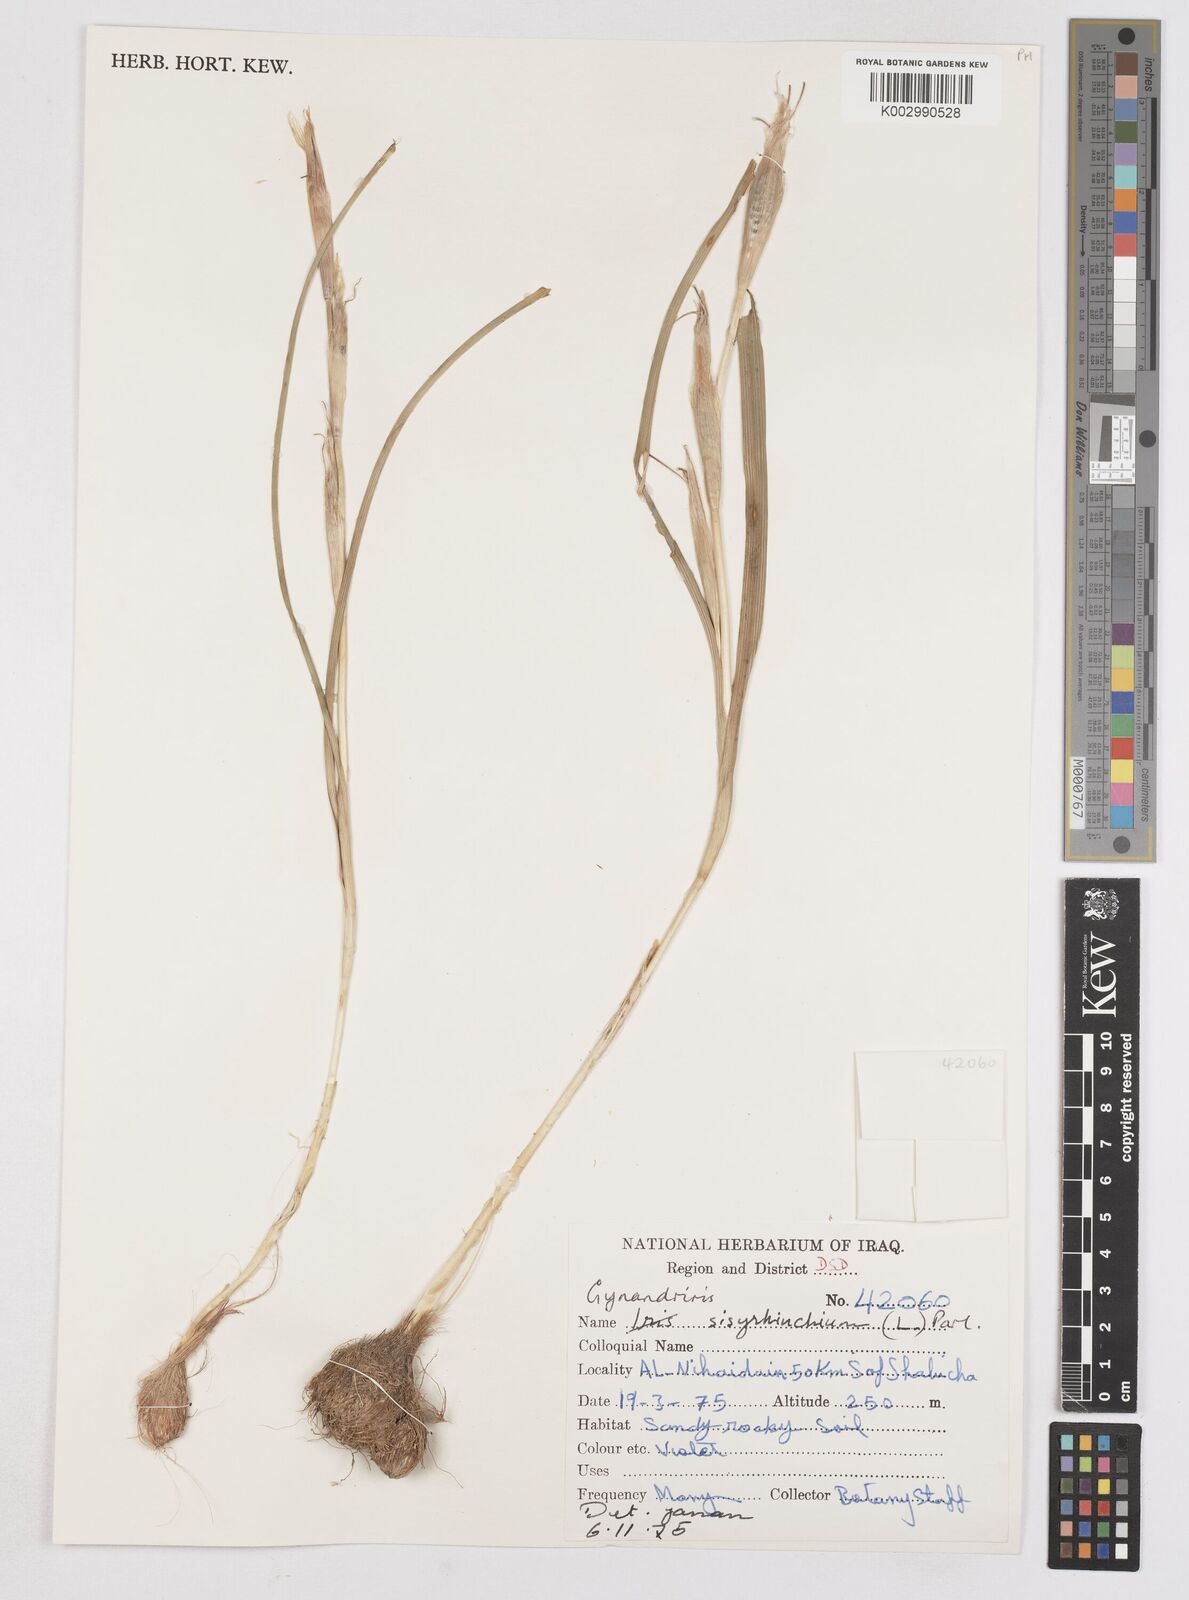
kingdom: Plantae
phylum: Tracheophyta
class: Liliopsida
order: Asparagales
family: Iridaceae
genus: Moraea
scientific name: Moraea sisyrinchium
